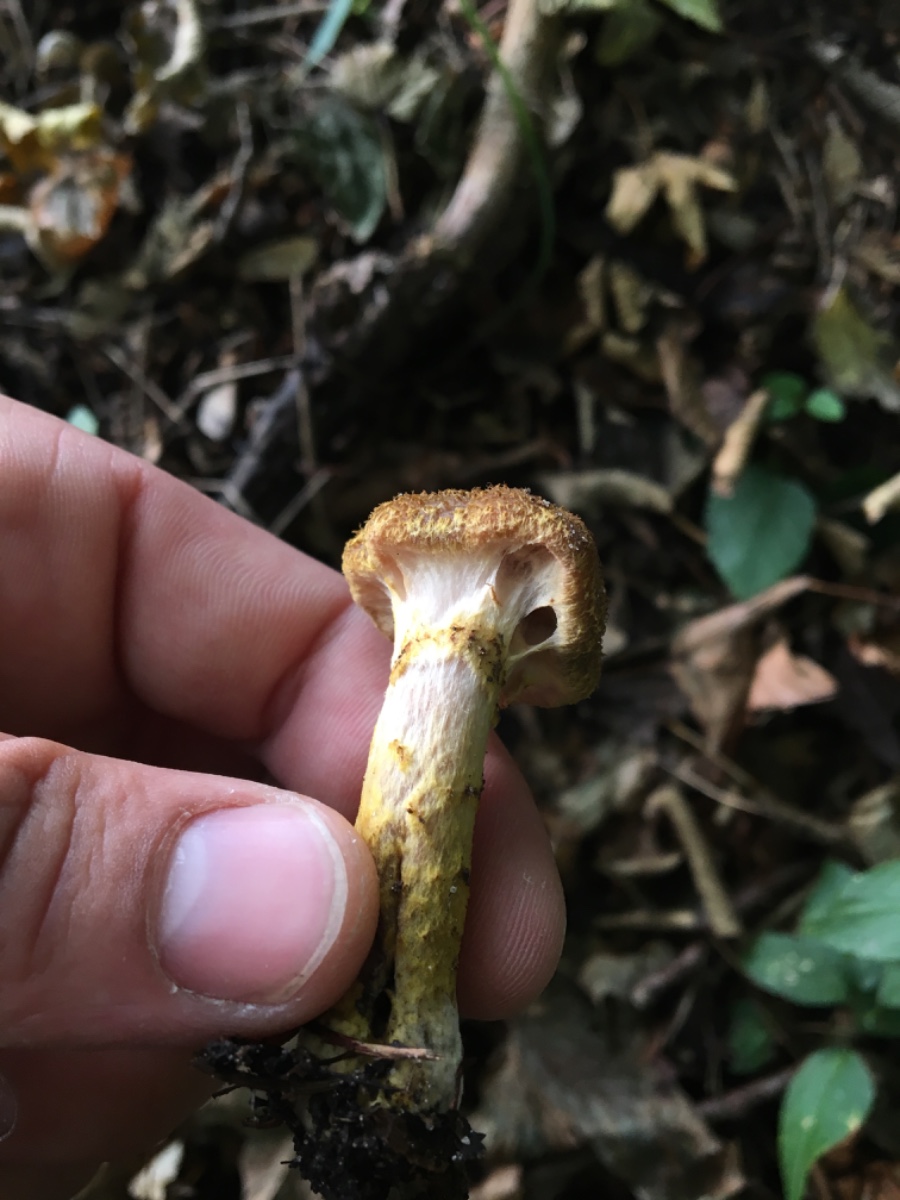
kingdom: Fungi
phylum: Basidiomycota
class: Agaricomycetes
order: Agaricales
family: Physalacriaceae
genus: Armillaria
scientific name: Armillaria lutea
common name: køllestokket honningsvamp
